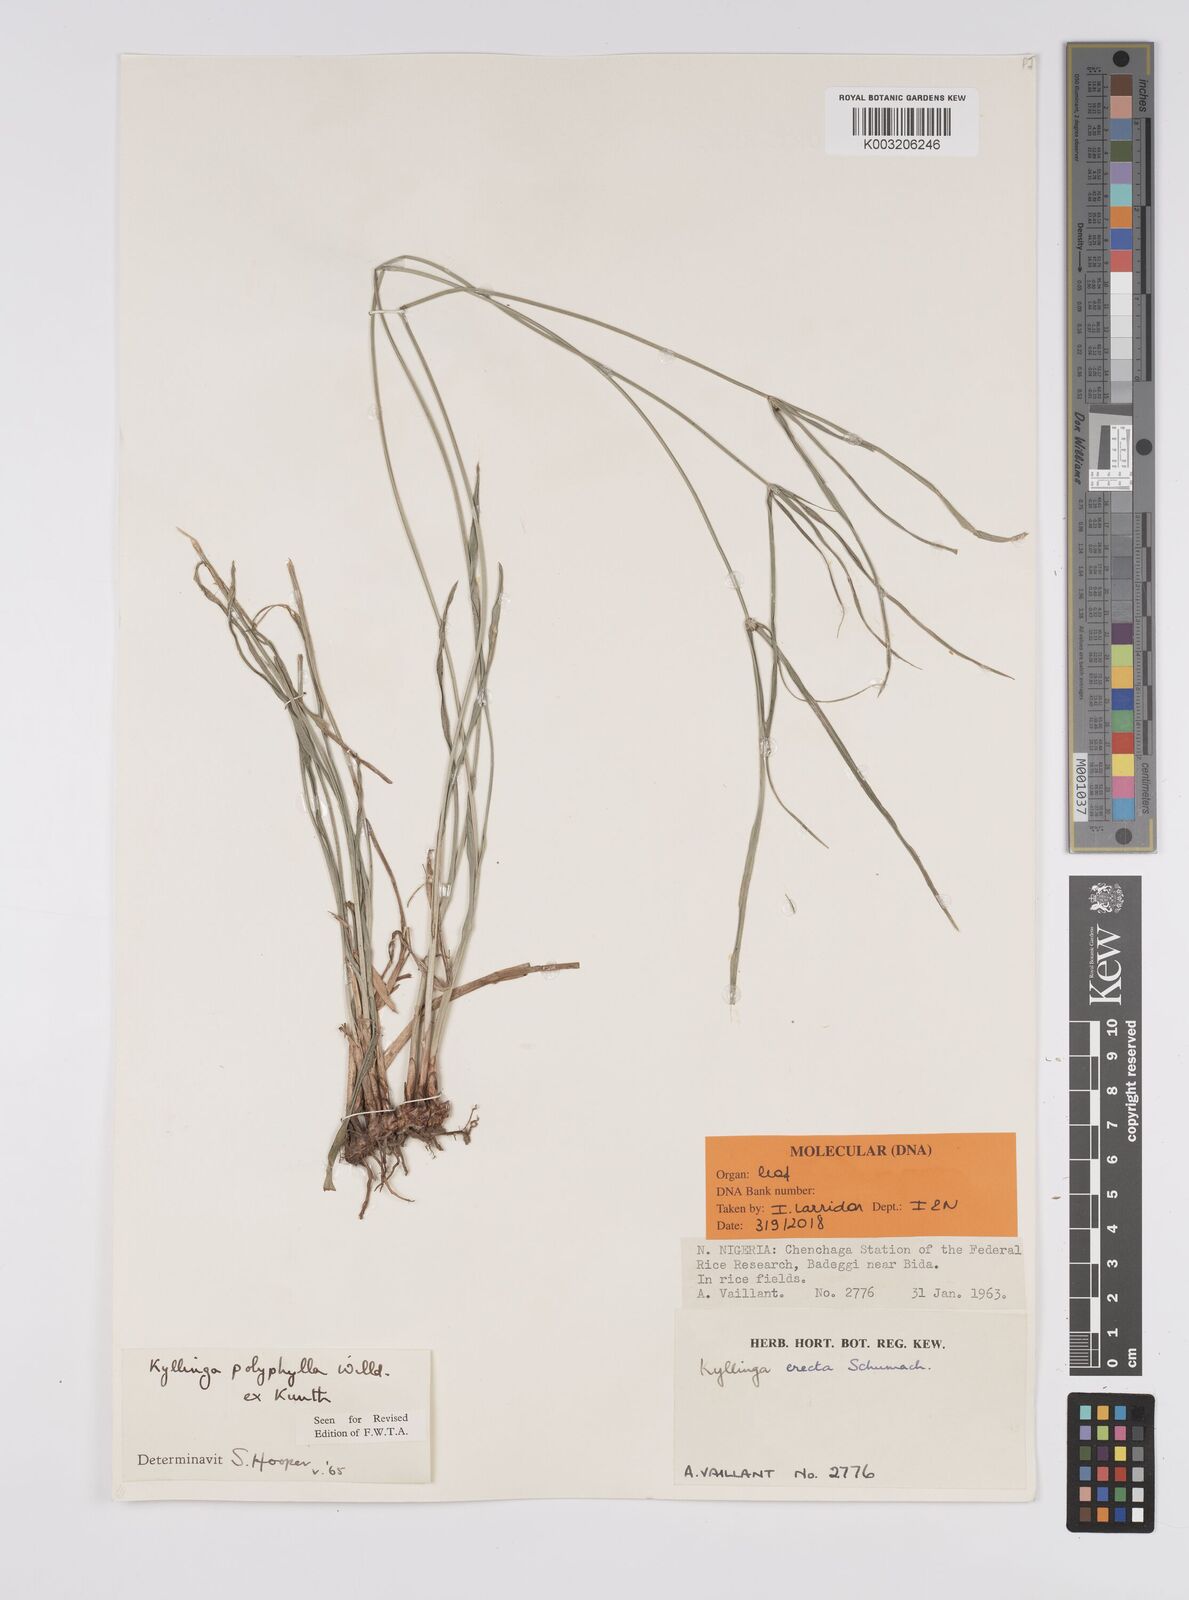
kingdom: Plantae
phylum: Tracheophyta
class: Liliopsida
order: Poales
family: Cyperaceae
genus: Cyperus
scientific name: Cyperus
